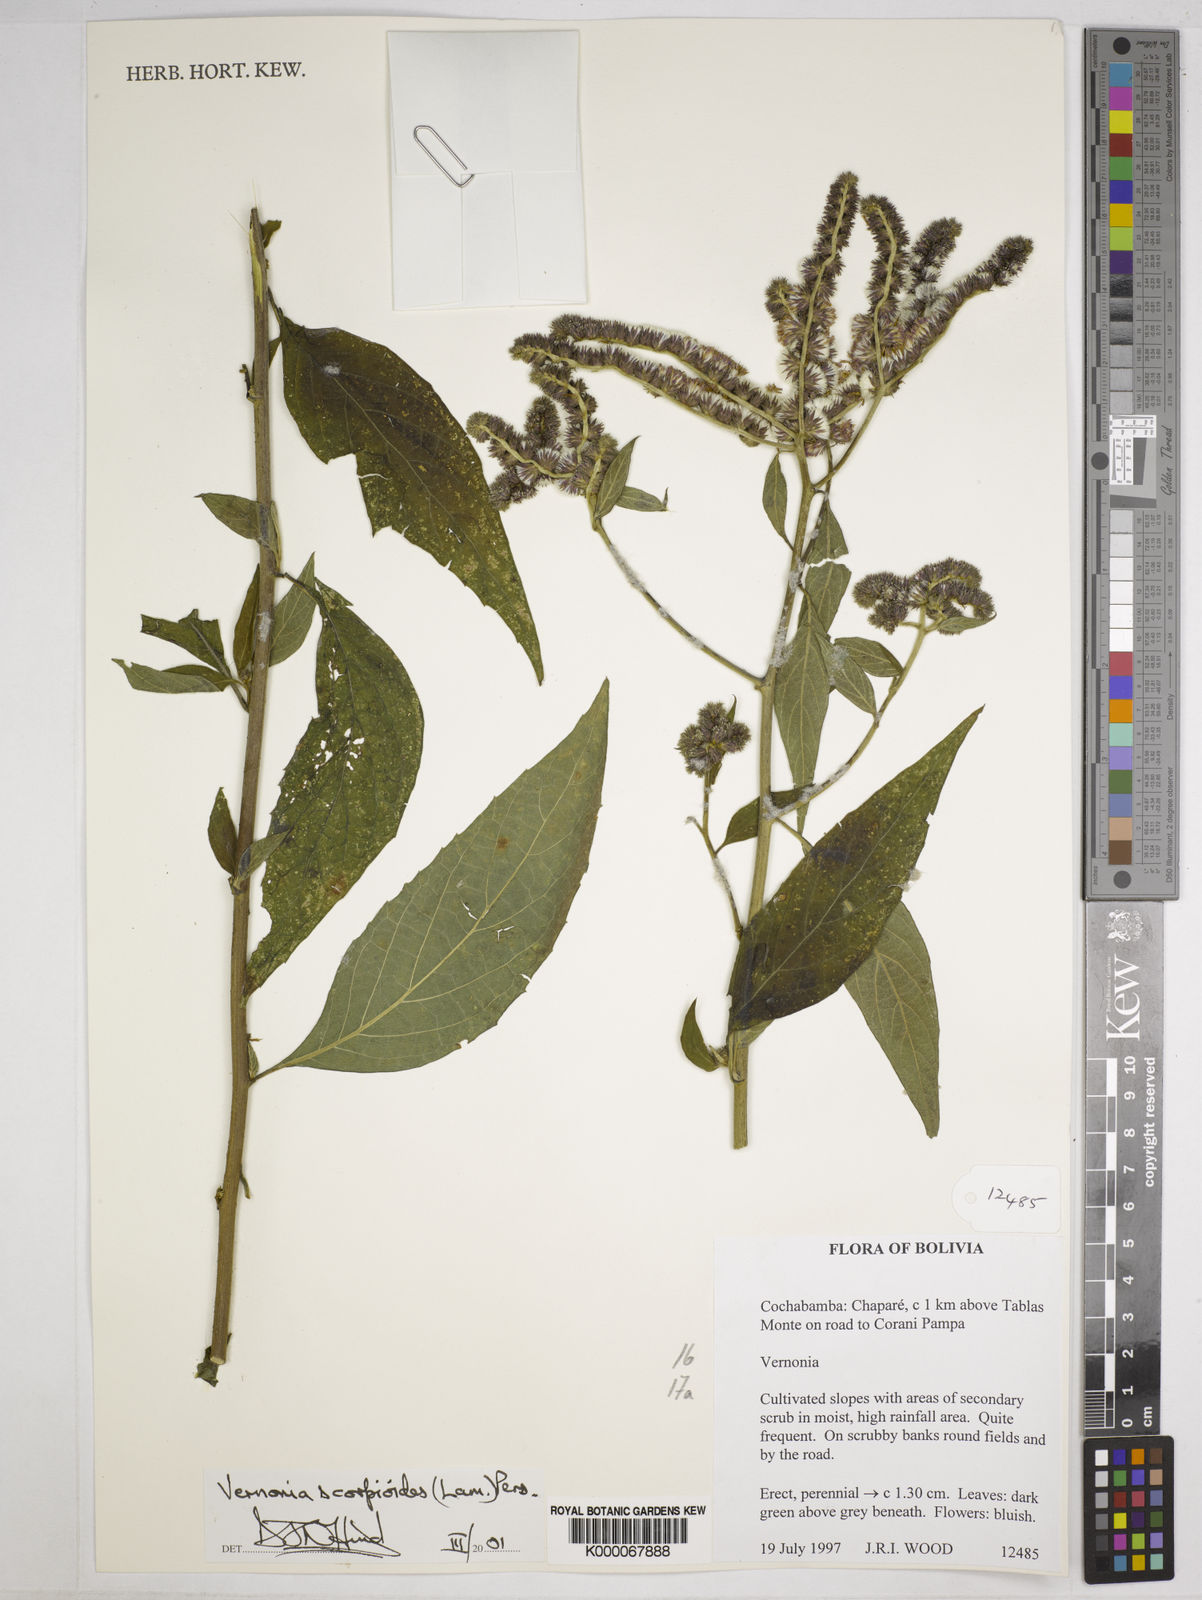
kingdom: Plantae
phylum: Tracheophyta
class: Magnoliopsida
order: Asterales
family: Asteraceae
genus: Cyrtocymura
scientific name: Cyrtocymura scorpioides
